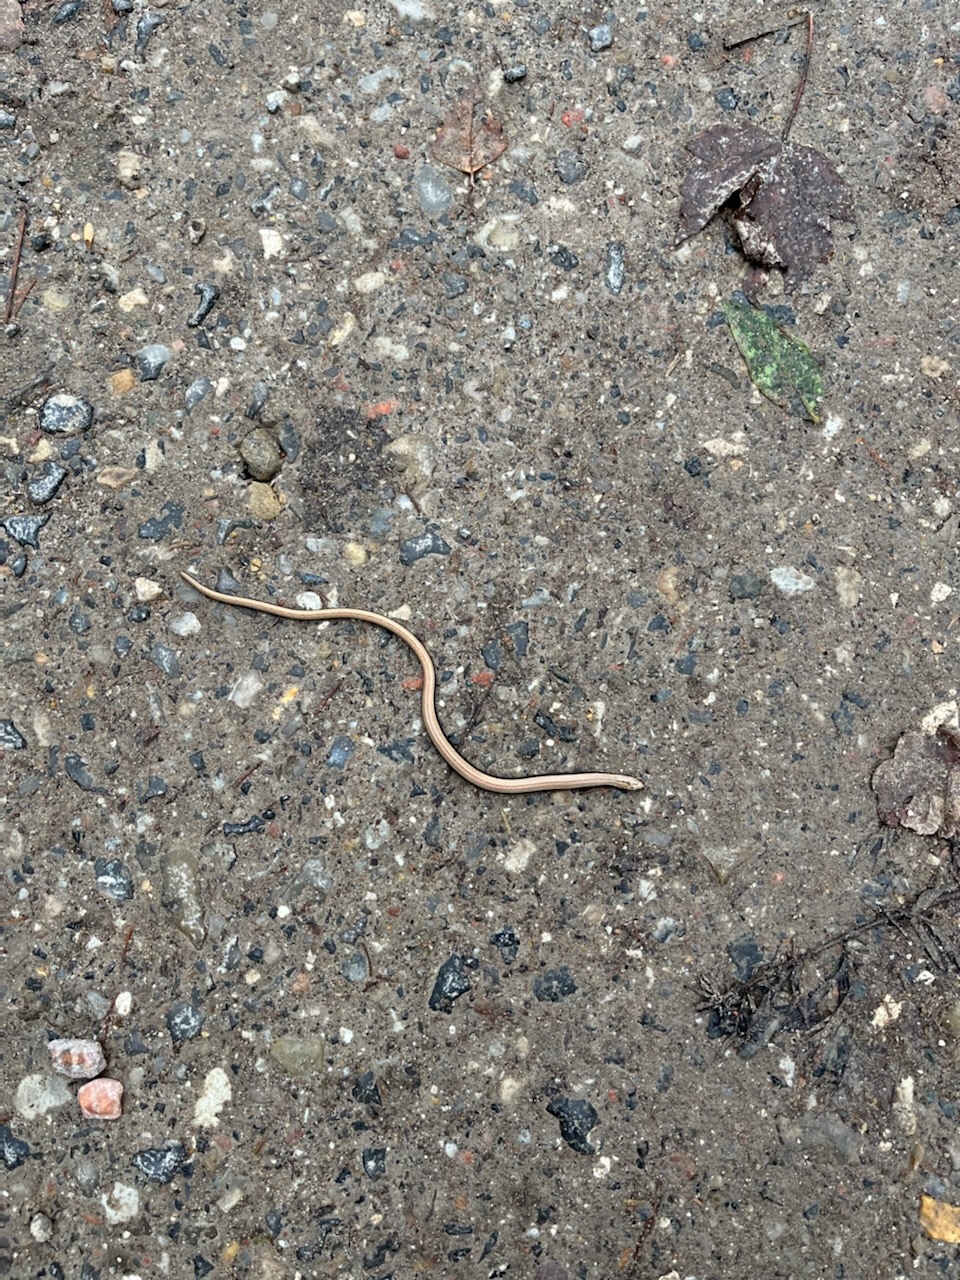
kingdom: Animalia
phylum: Chordata
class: Squamata
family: Anguidae
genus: Anguis
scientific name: Anguis fragilis
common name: Stålorm
